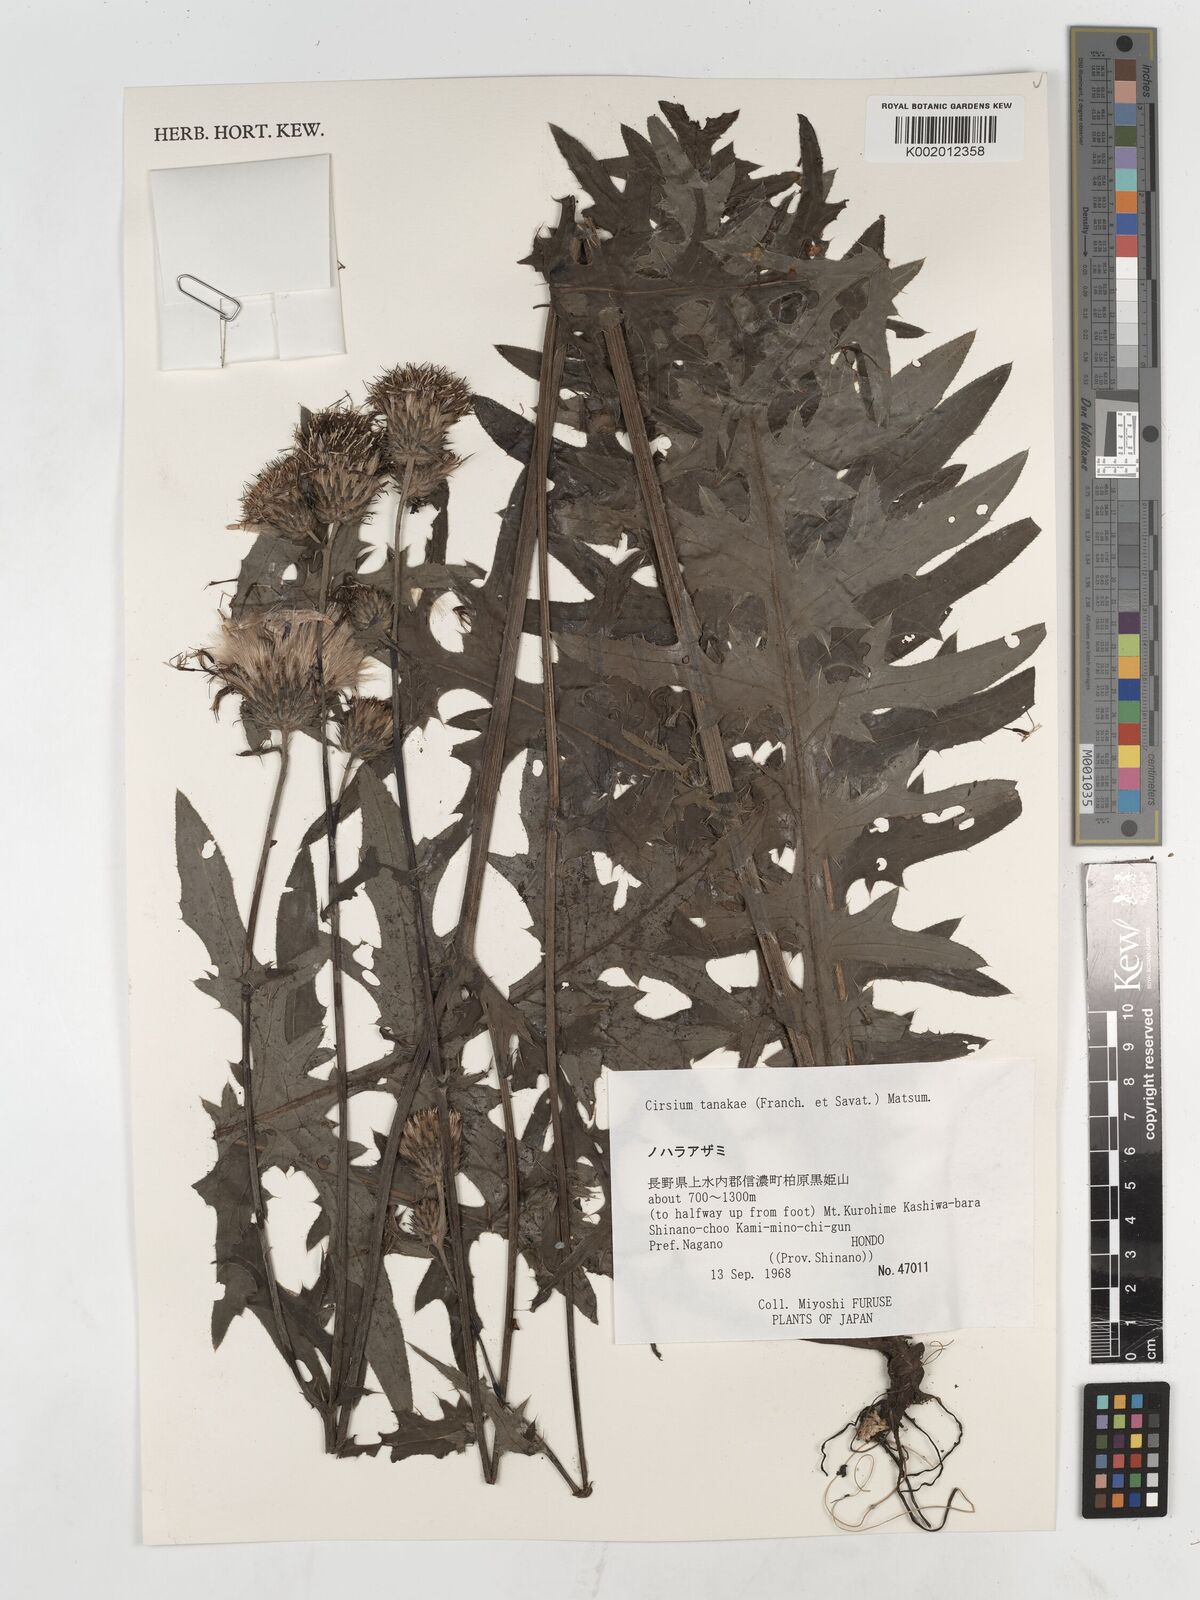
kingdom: Plantae
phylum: Tracheophyta
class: Magnoliopsida
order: Asterales
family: Asteraceae
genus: Cirsium
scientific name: Cirsium nipponicum
